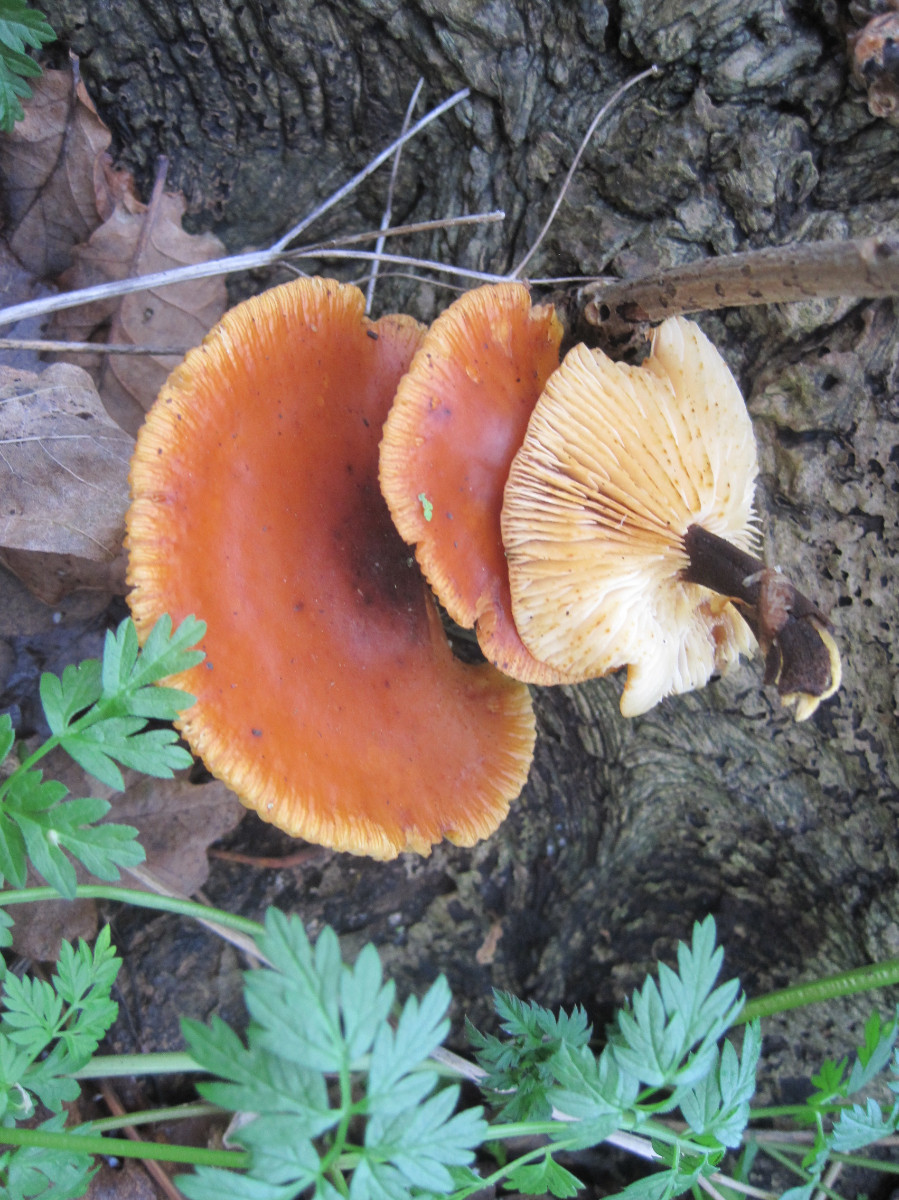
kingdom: Fungi
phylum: Basidiomycota
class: Agaricomycetes
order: Agaricales
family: Physalacriaceae
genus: Flammulina
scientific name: Flammulina velutipes
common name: gul fløjlsfod
